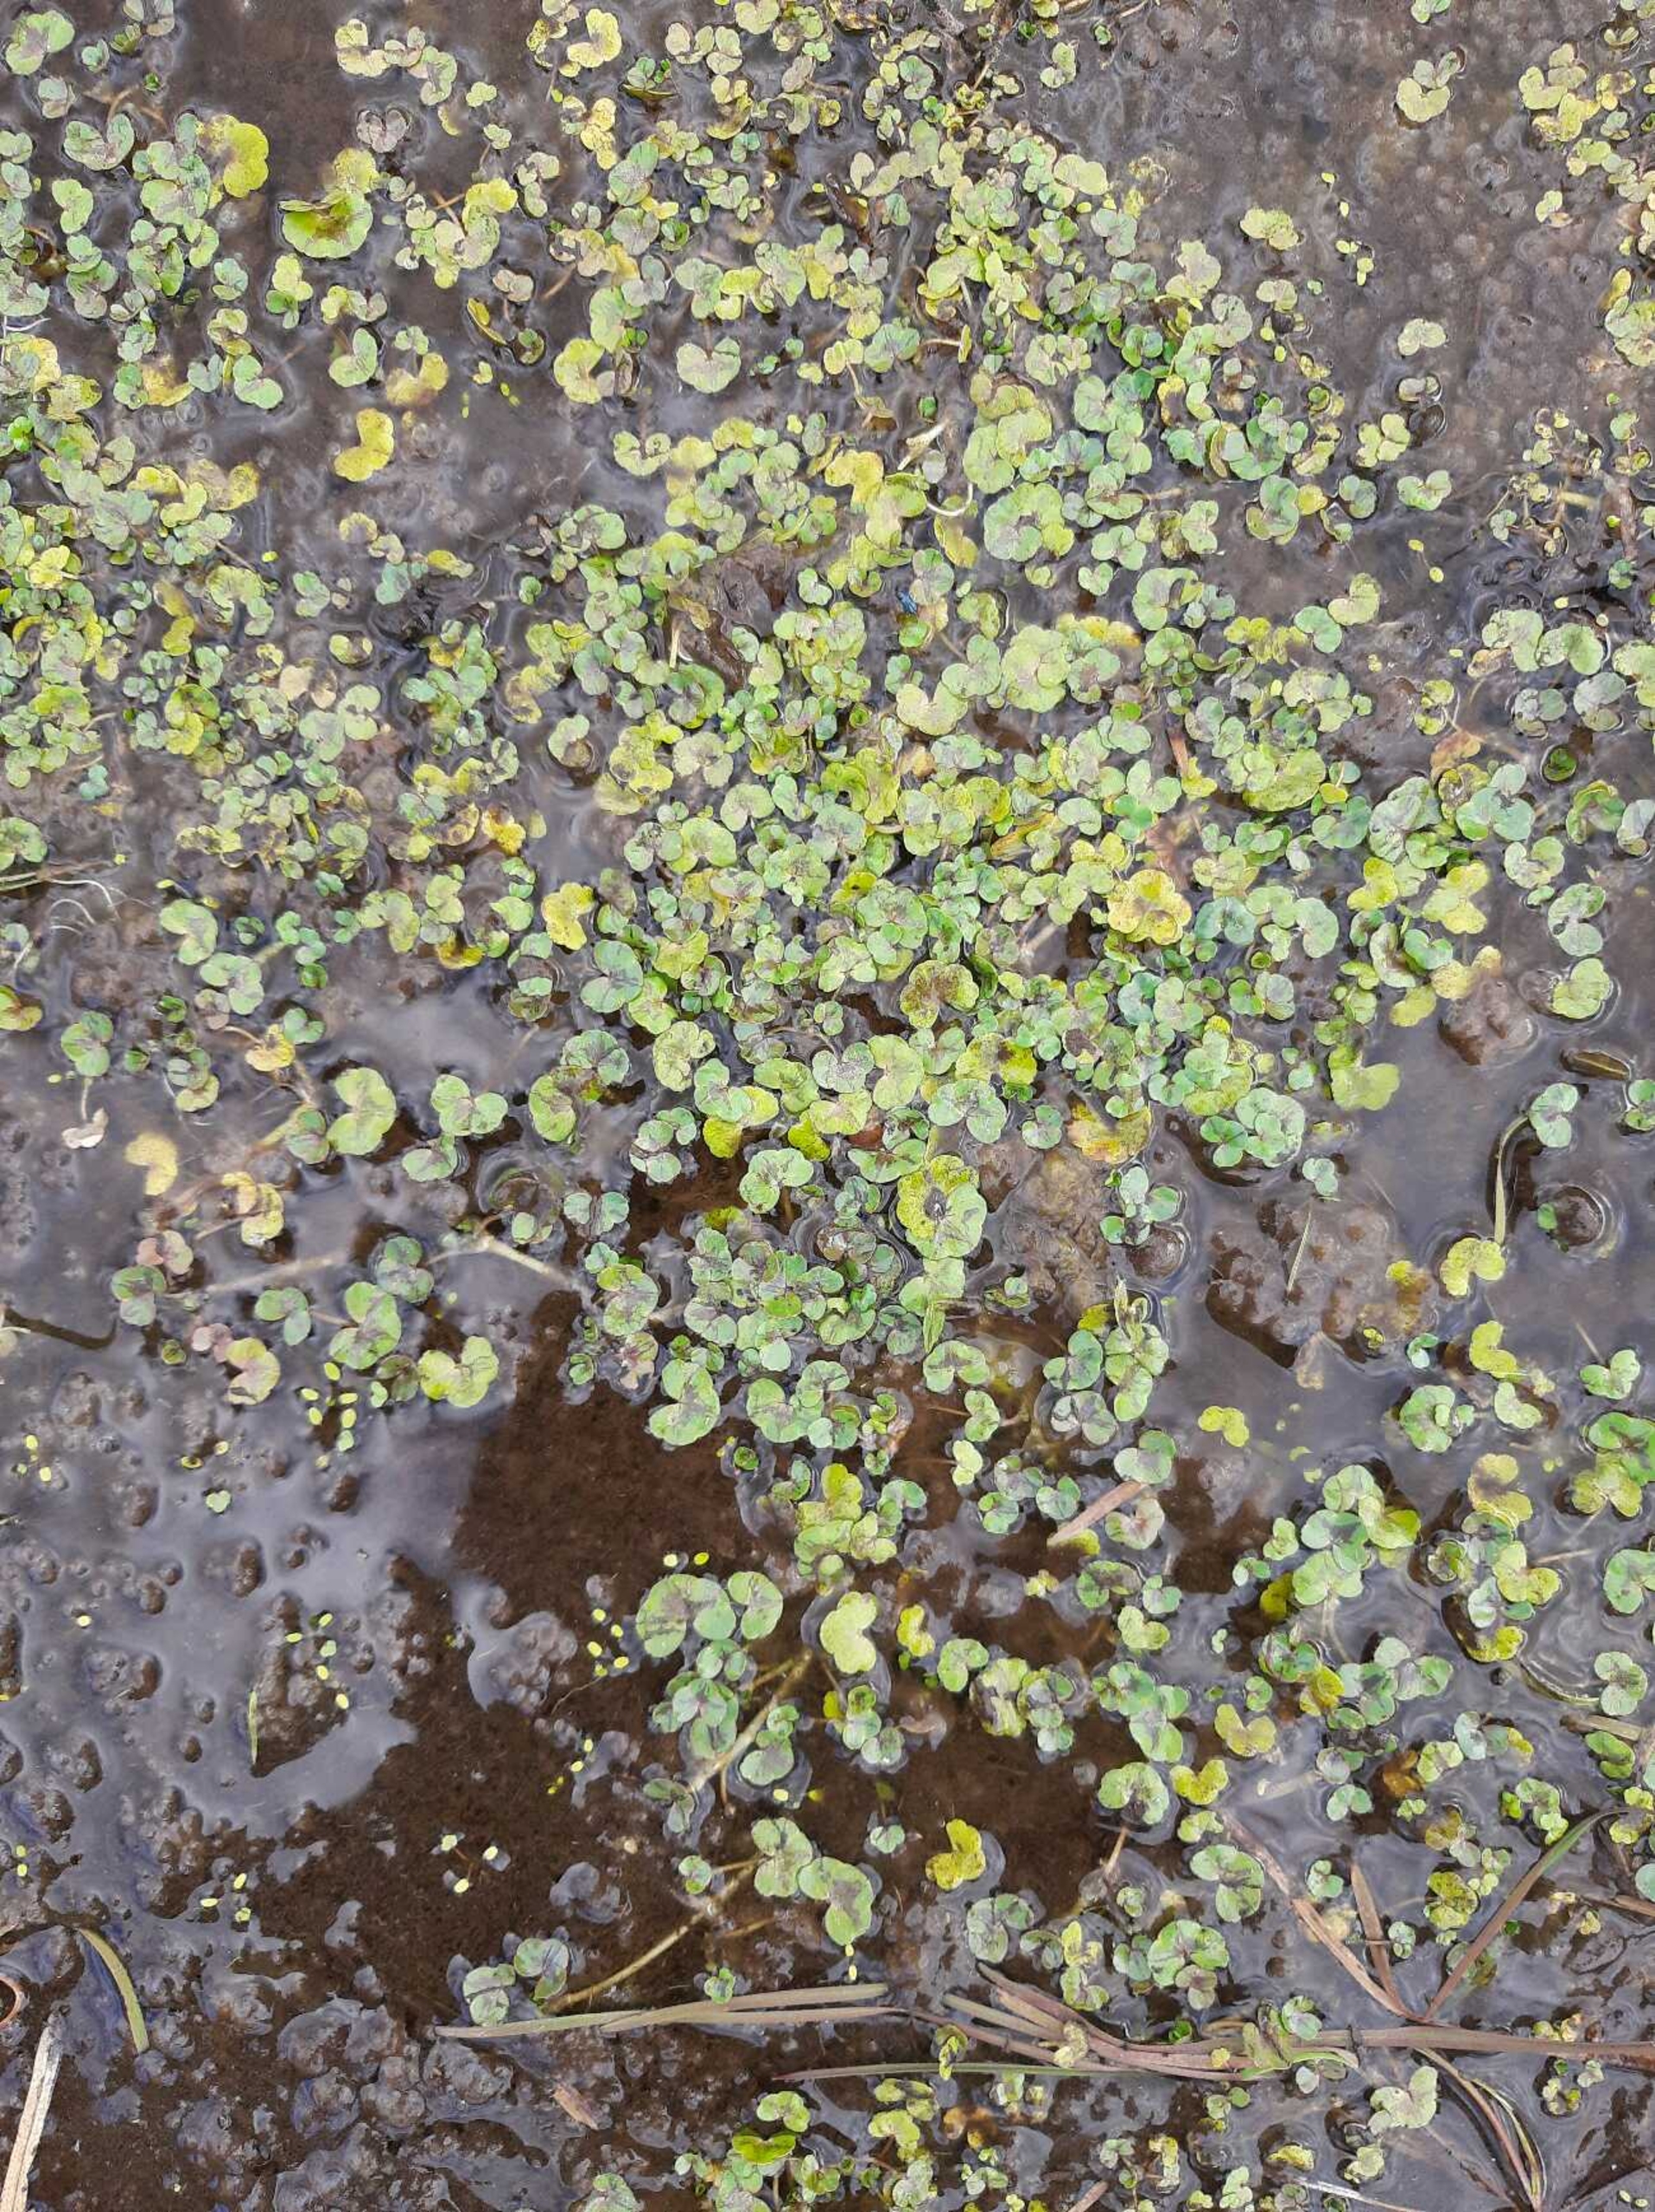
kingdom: Plantae
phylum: Tracheophyta
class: Magnoliopsida
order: Ranunculales
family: Ranunculaceae
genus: Ranunculus
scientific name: Ranunculus hederaceus
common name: Vedbend-vandranunkel
